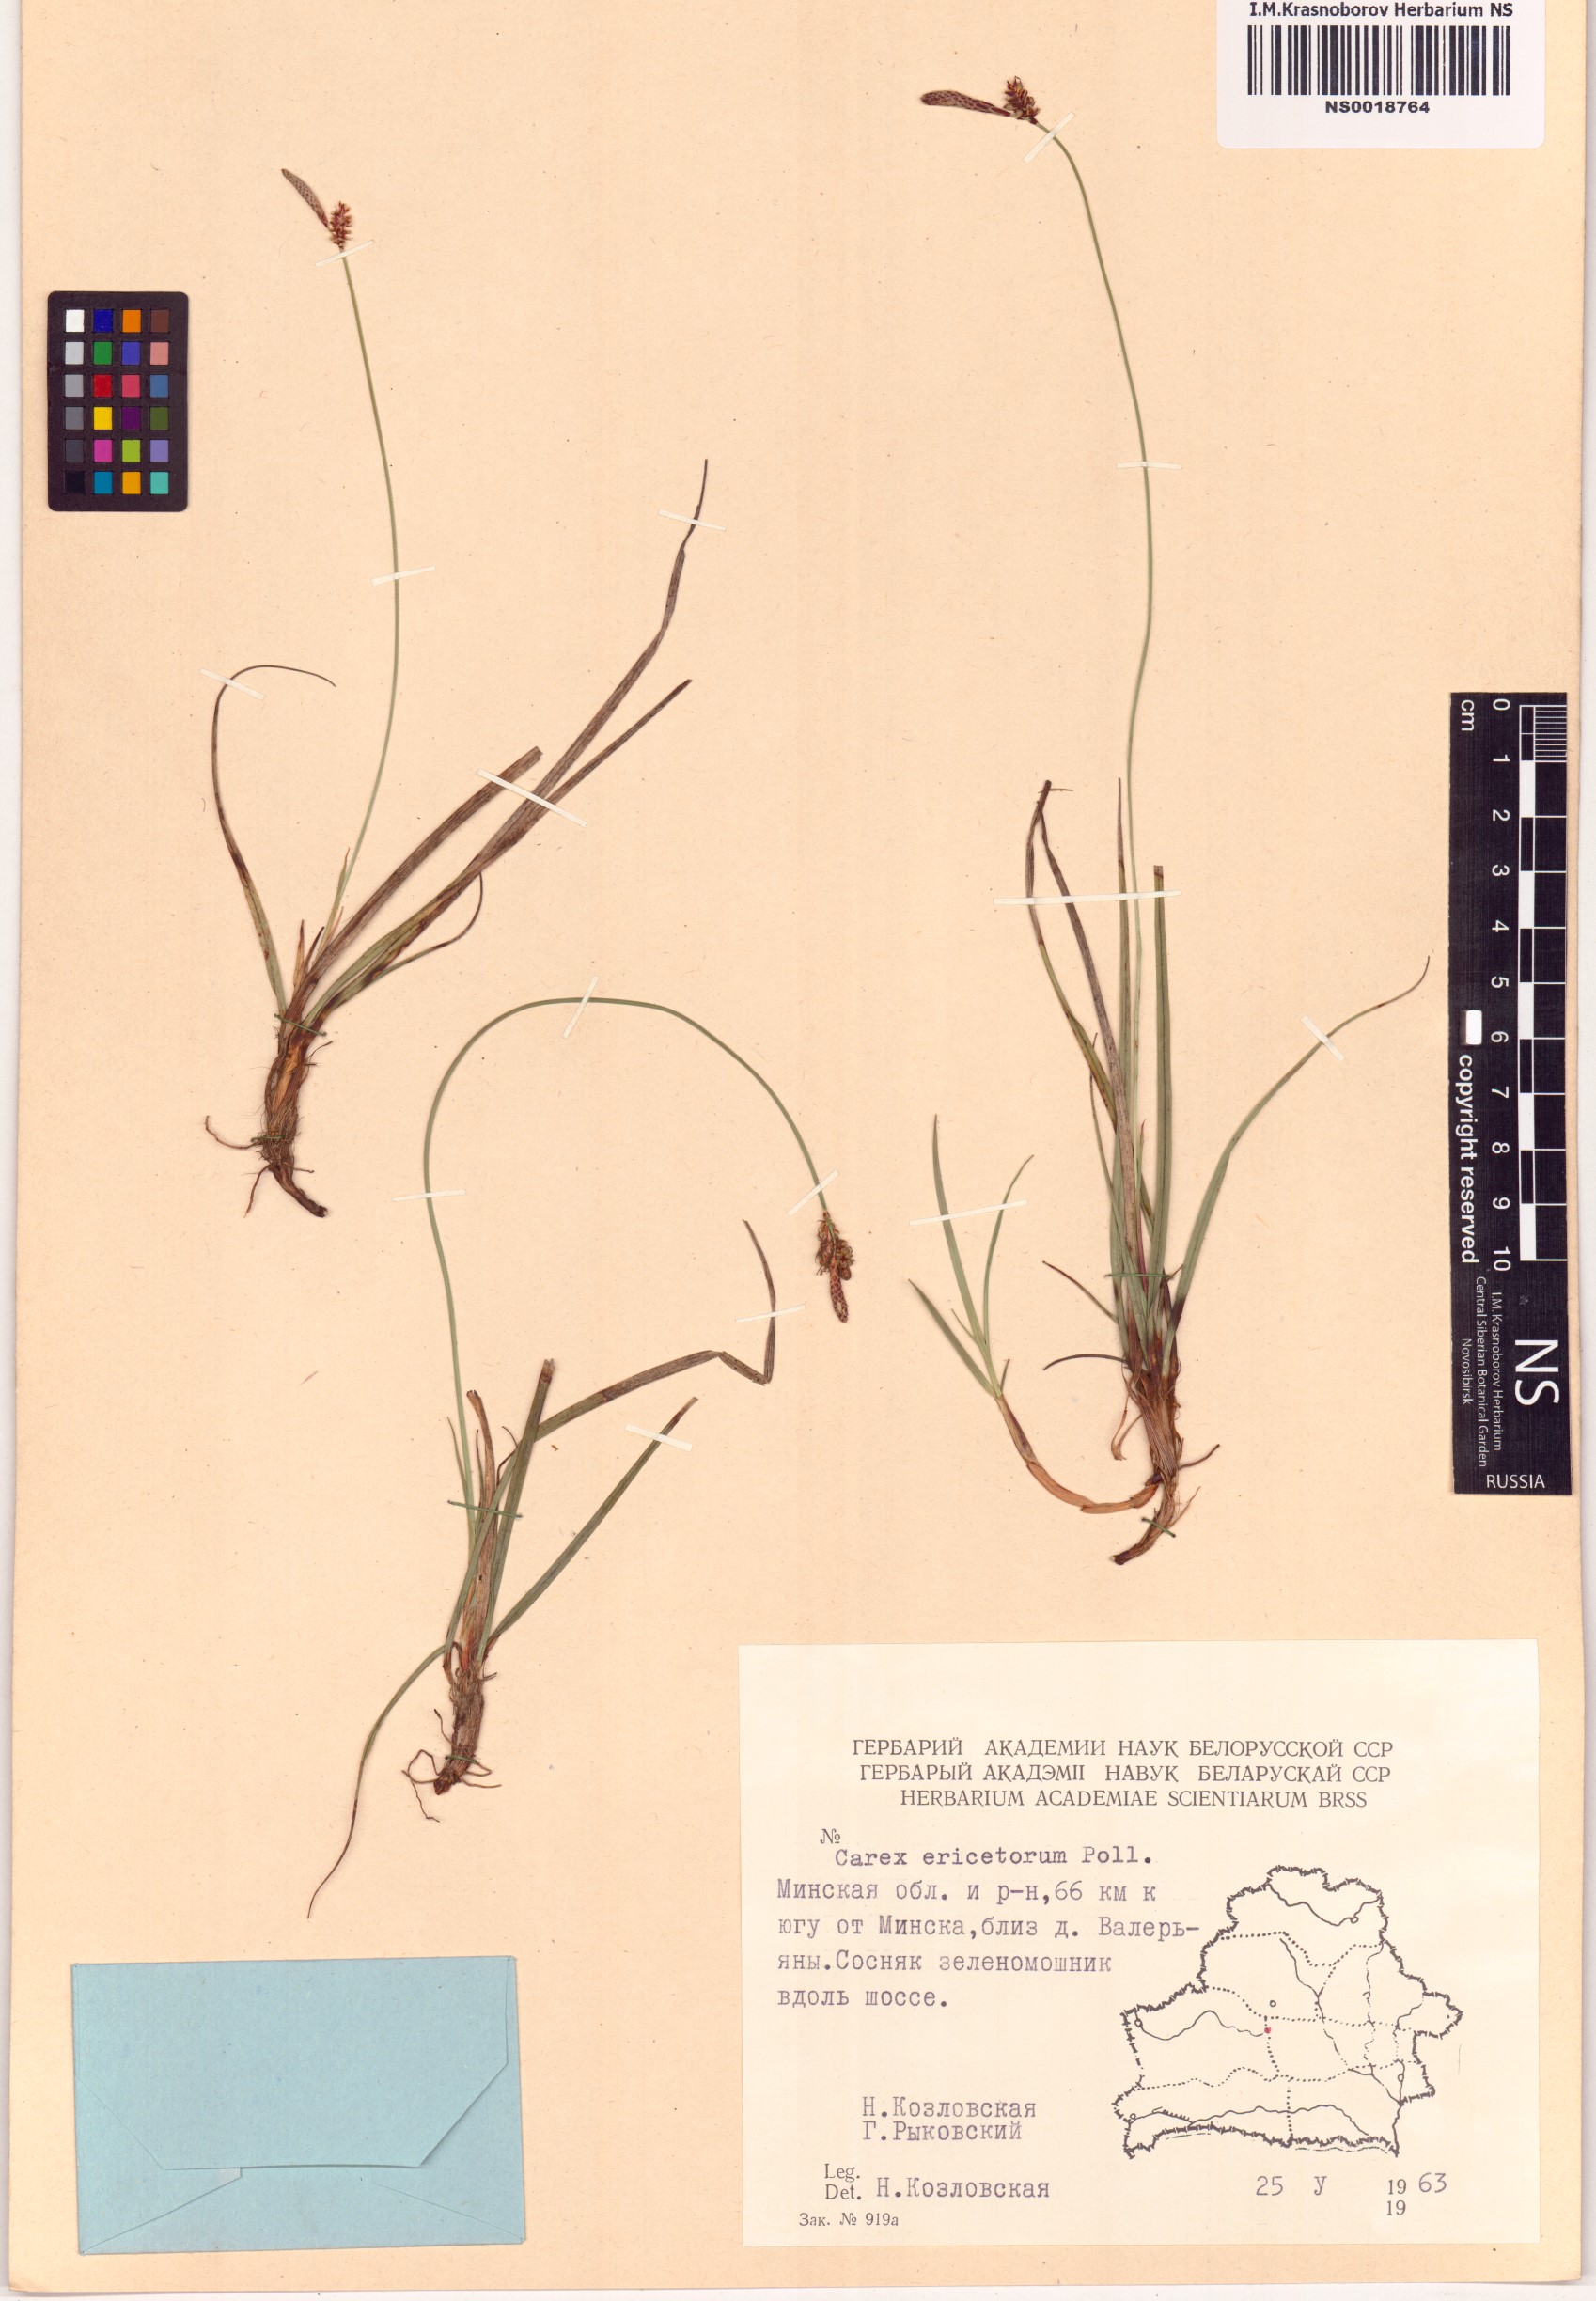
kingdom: Plantae
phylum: Tracheophyta
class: Liliopsida
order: Poales
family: Cyperaceae
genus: Carex
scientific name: Carex ericetorum
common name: Rare spring-sedge
